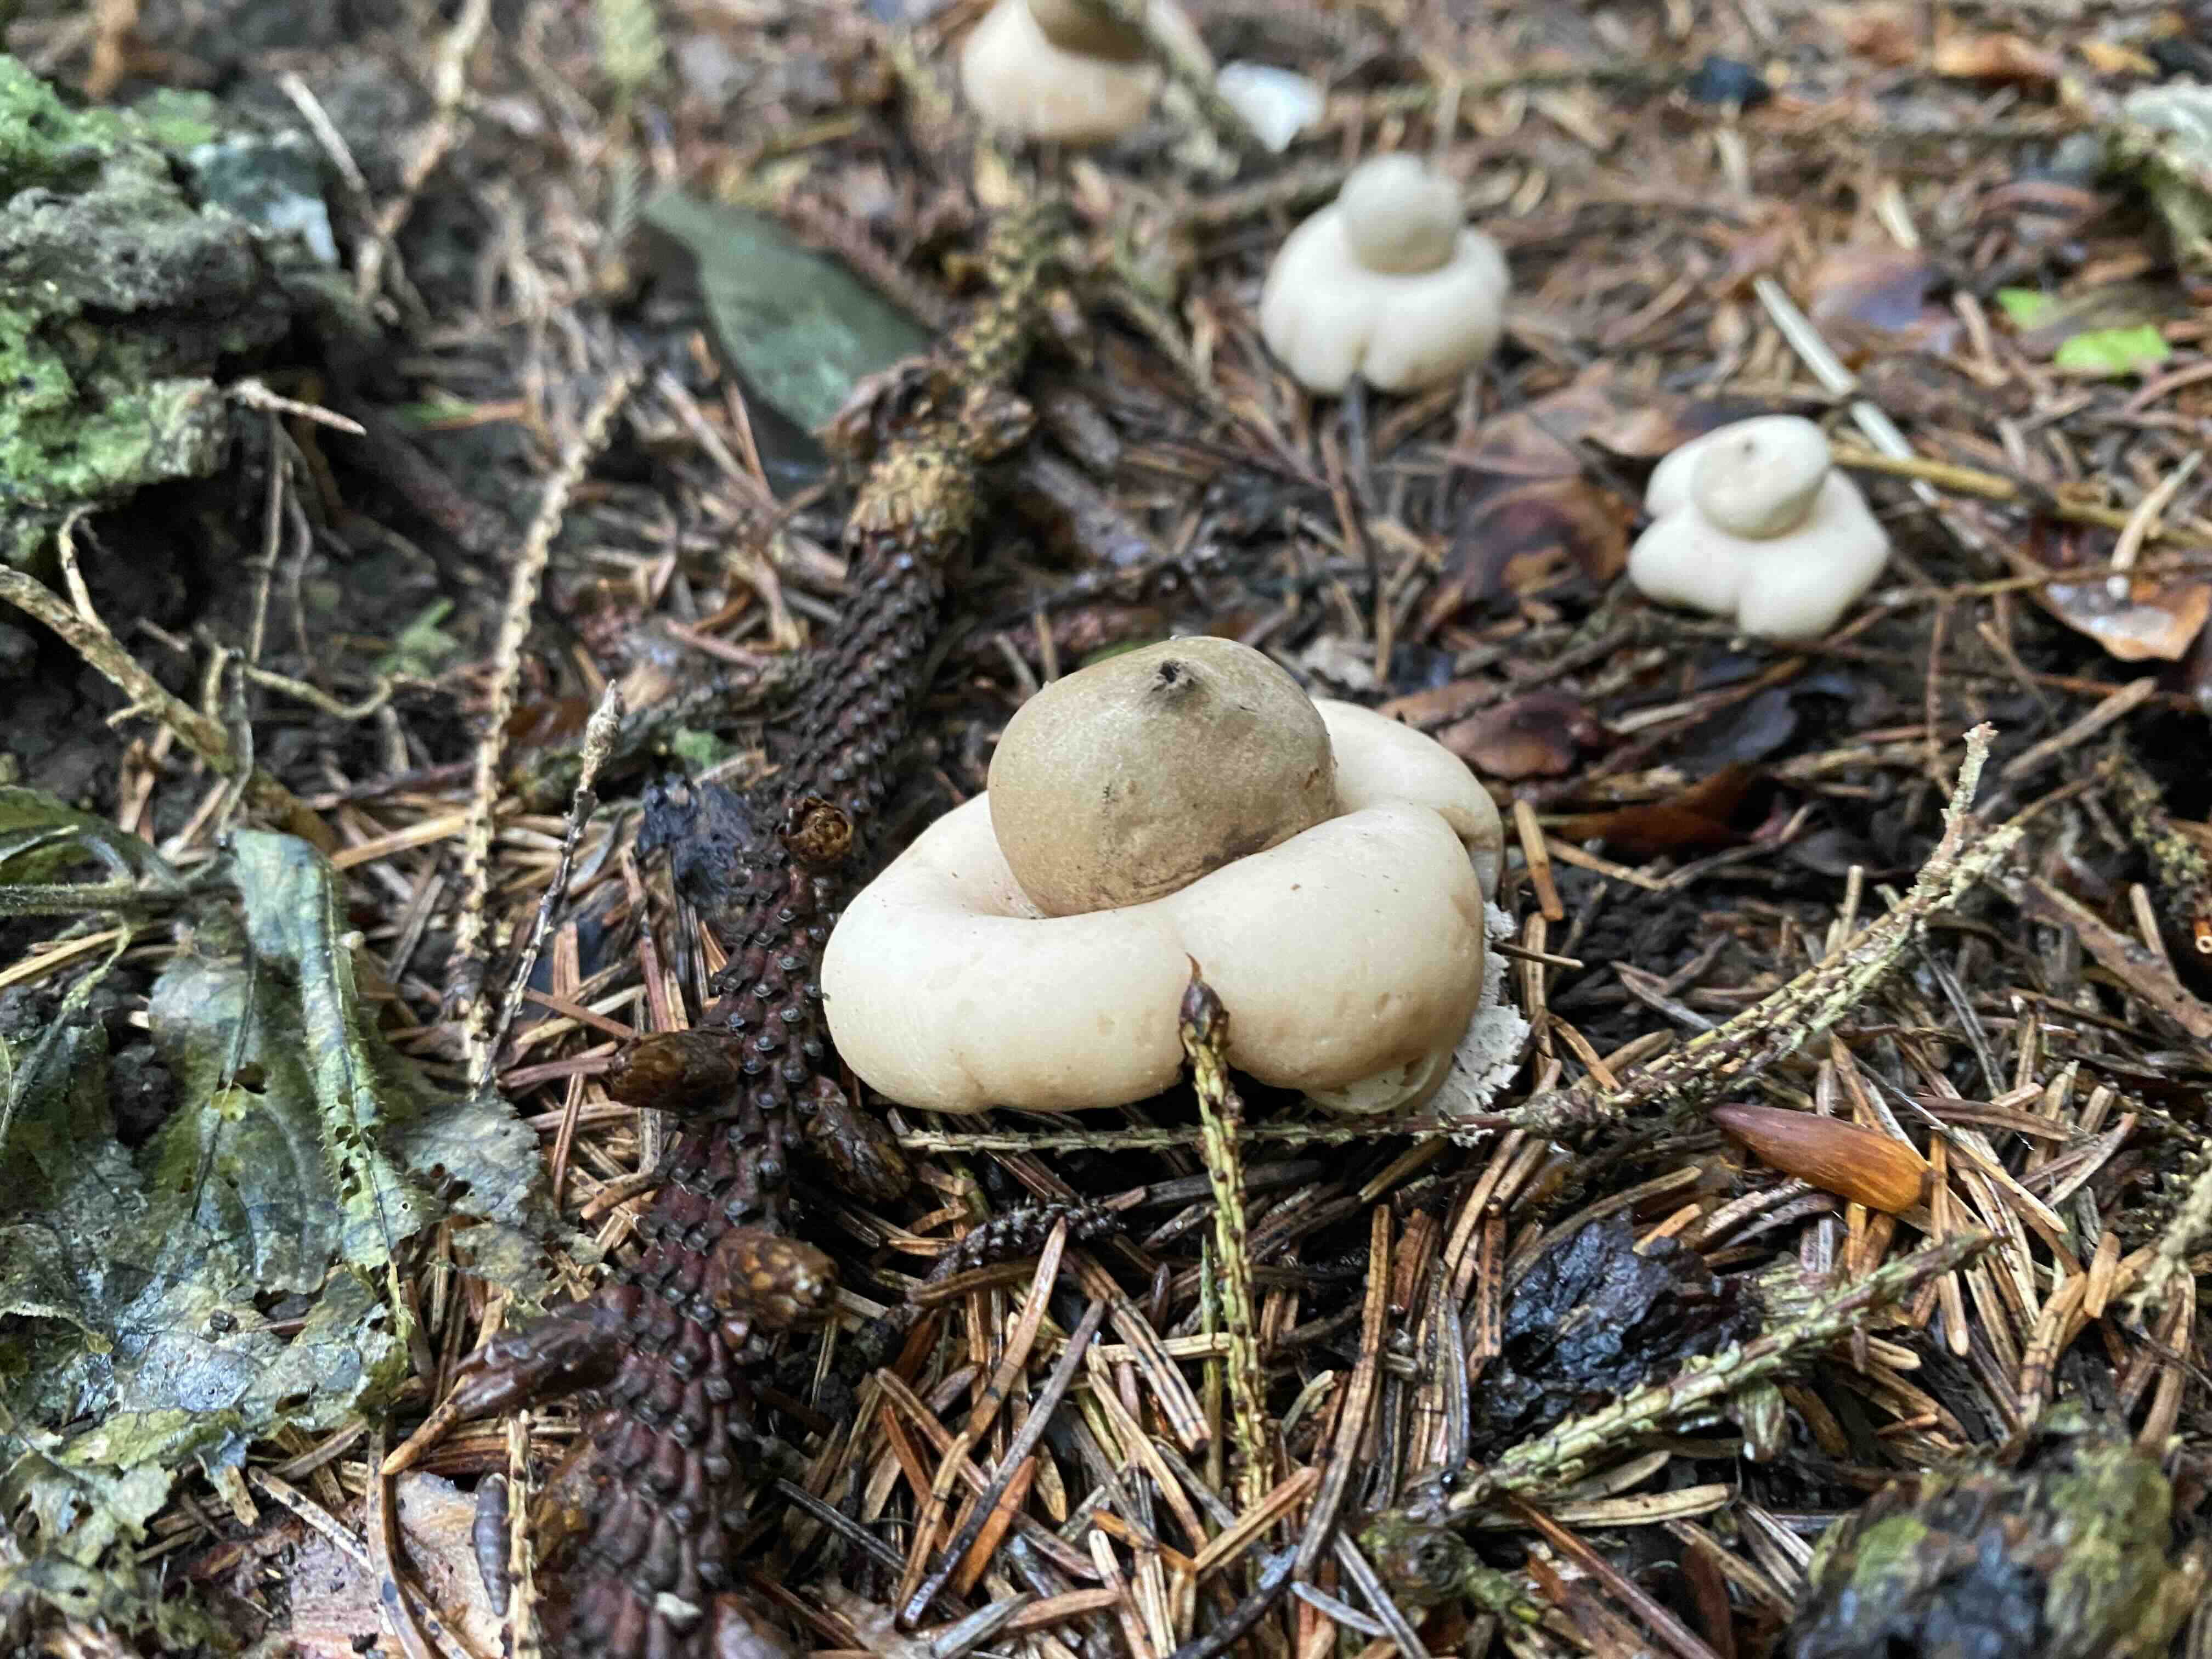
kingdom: Fungi
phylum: Basidiomycota
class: Agaricomycetes
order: Geastrales
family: Geastraceae
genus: Geastrum
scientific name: Geastrum fimbriatum
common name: frynset stjernebold
